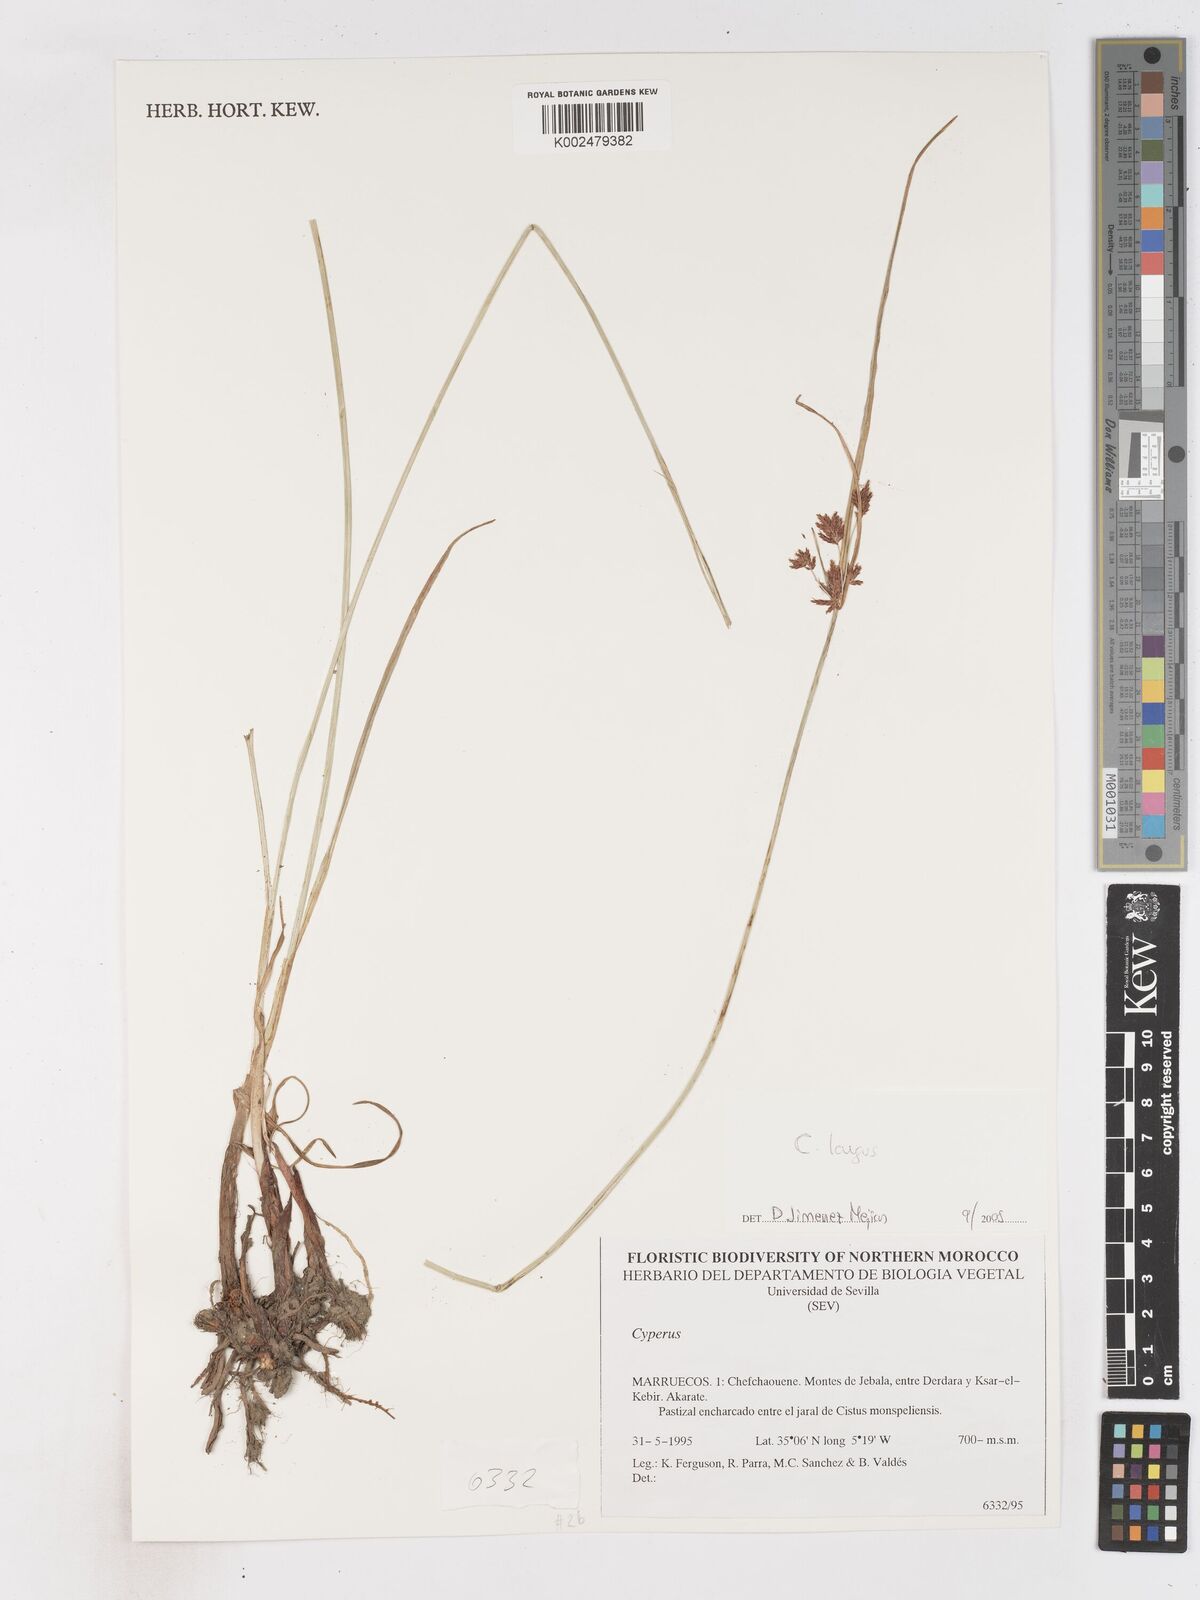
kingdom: Plantae
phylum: Tracheophyta
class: Liliopsida
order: Poales
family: Cyperaceae
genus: Cyperus
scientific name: Cyperus
